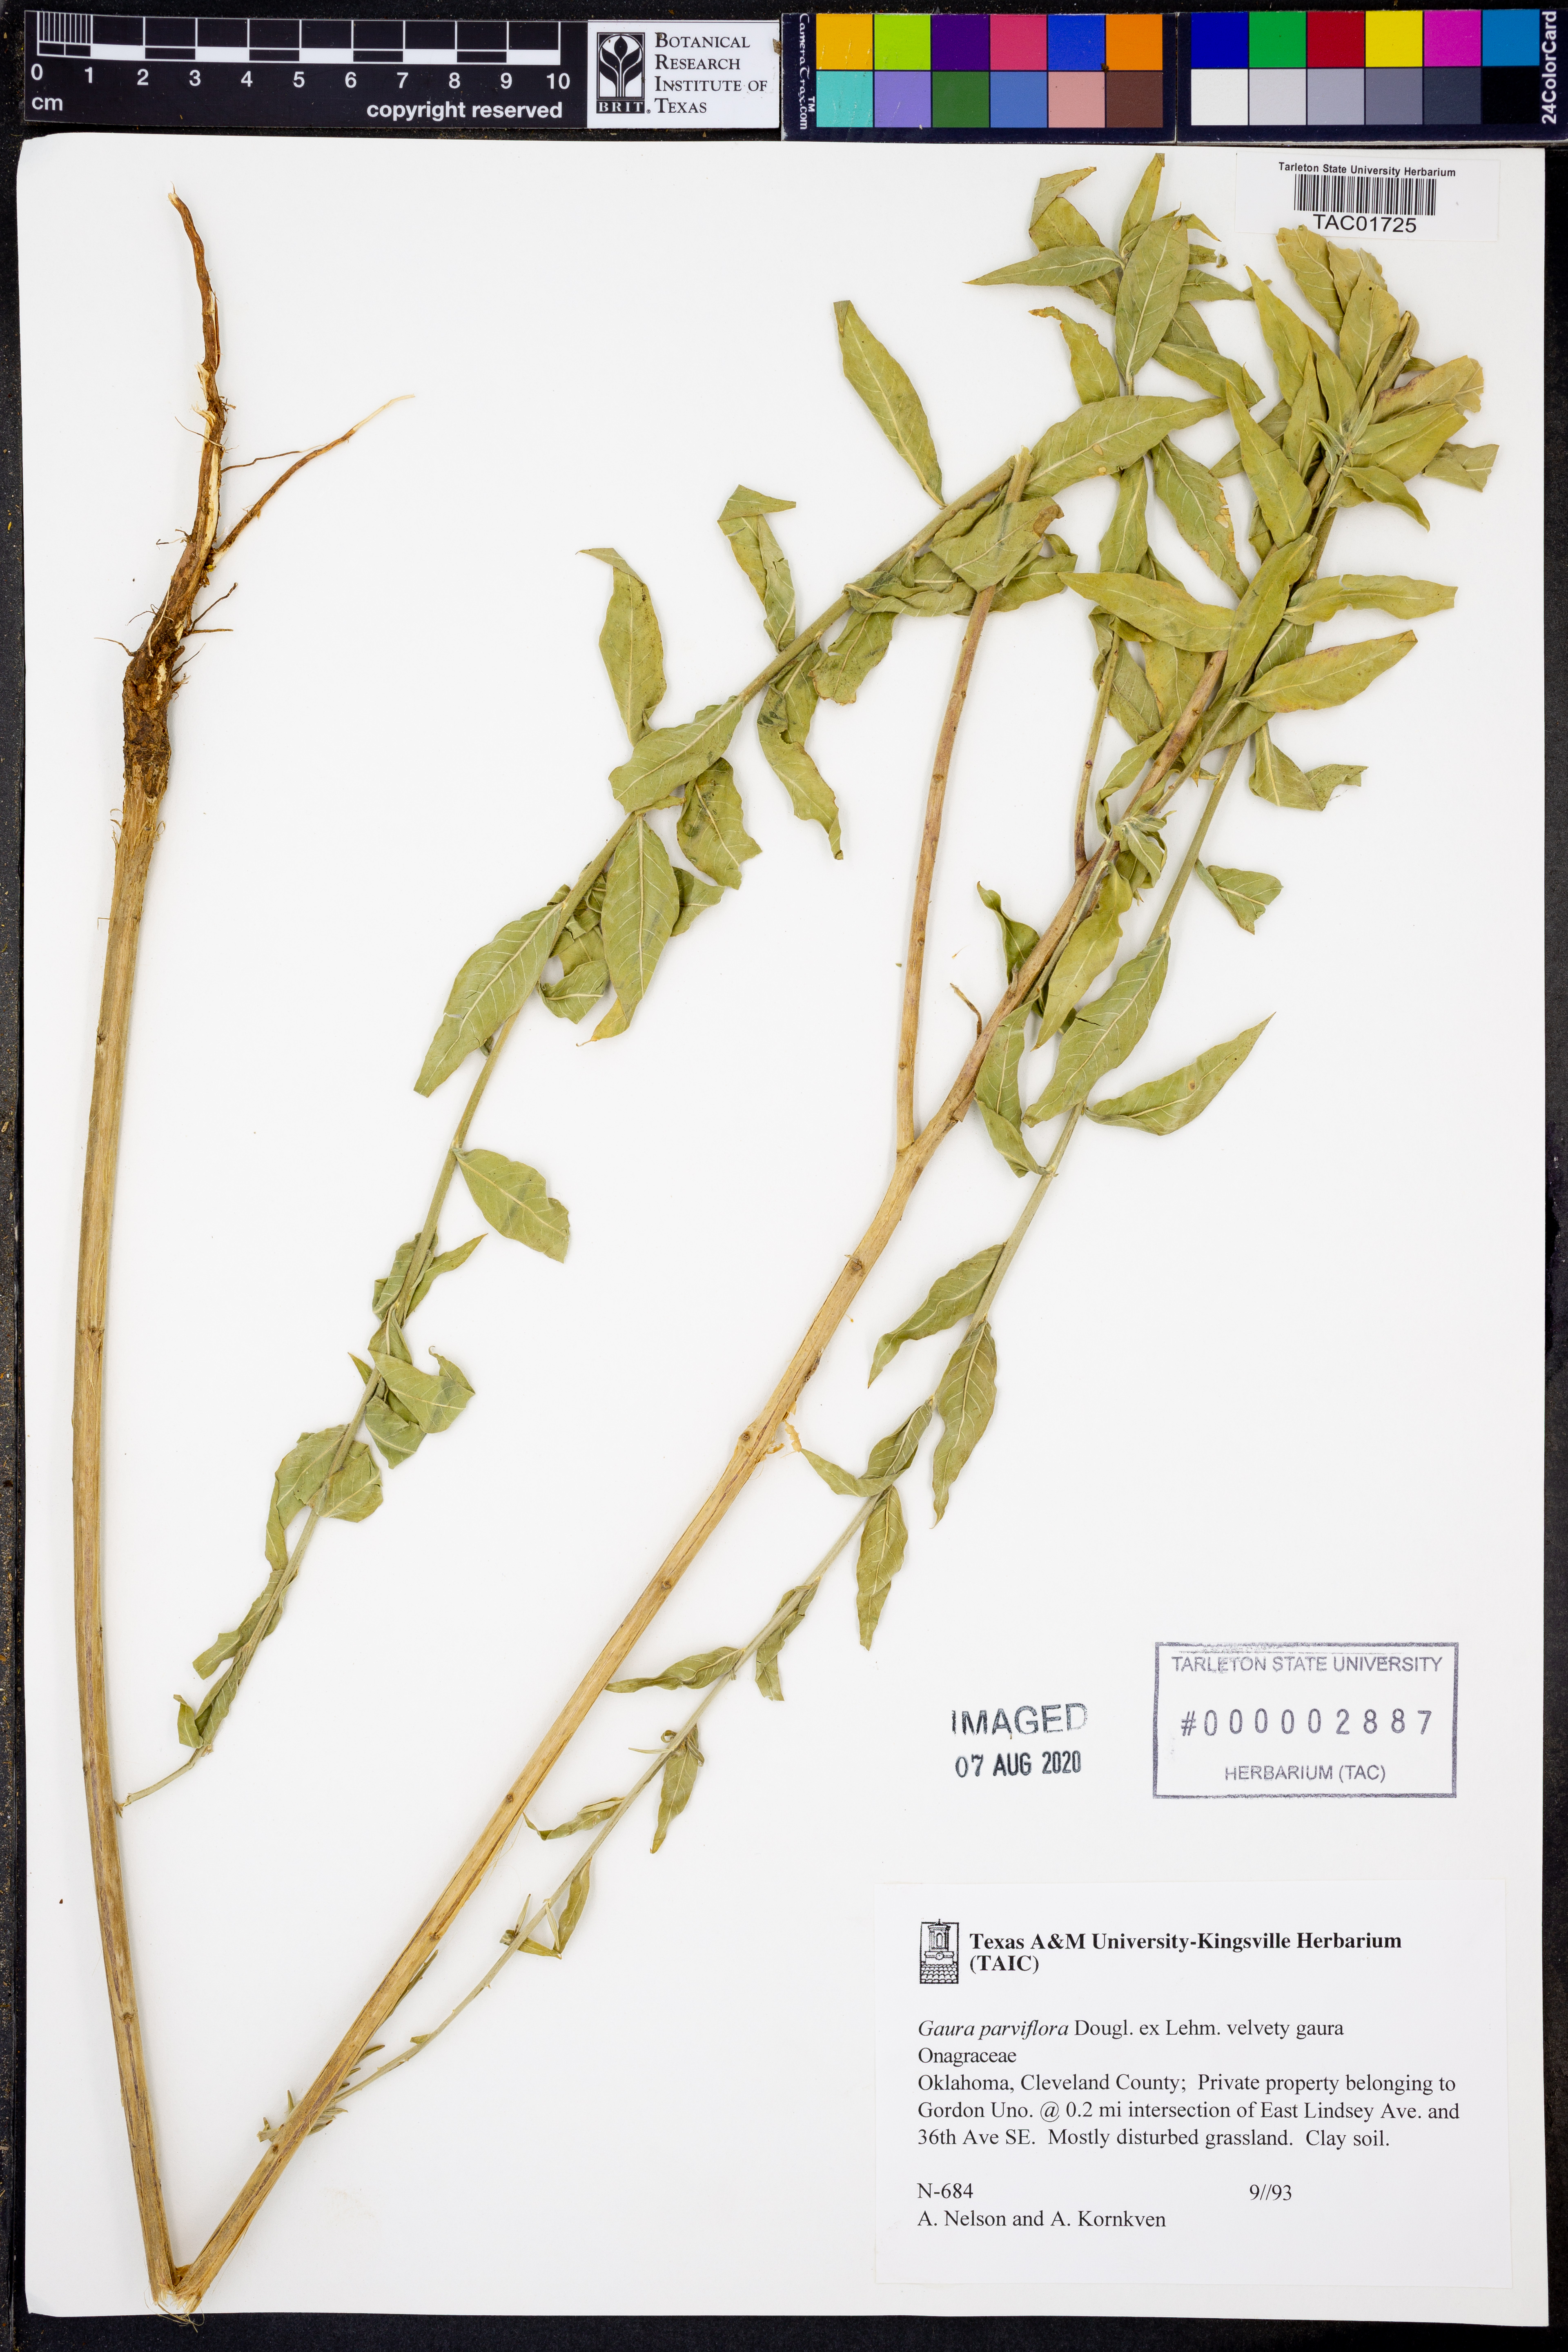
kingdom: Plantae
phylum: Tracheophyta
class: Magnoliopsida
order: Myrtales
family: Onagraceae
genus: Oenothera
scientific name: Oenothera curtiflora
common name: Velvetweed
